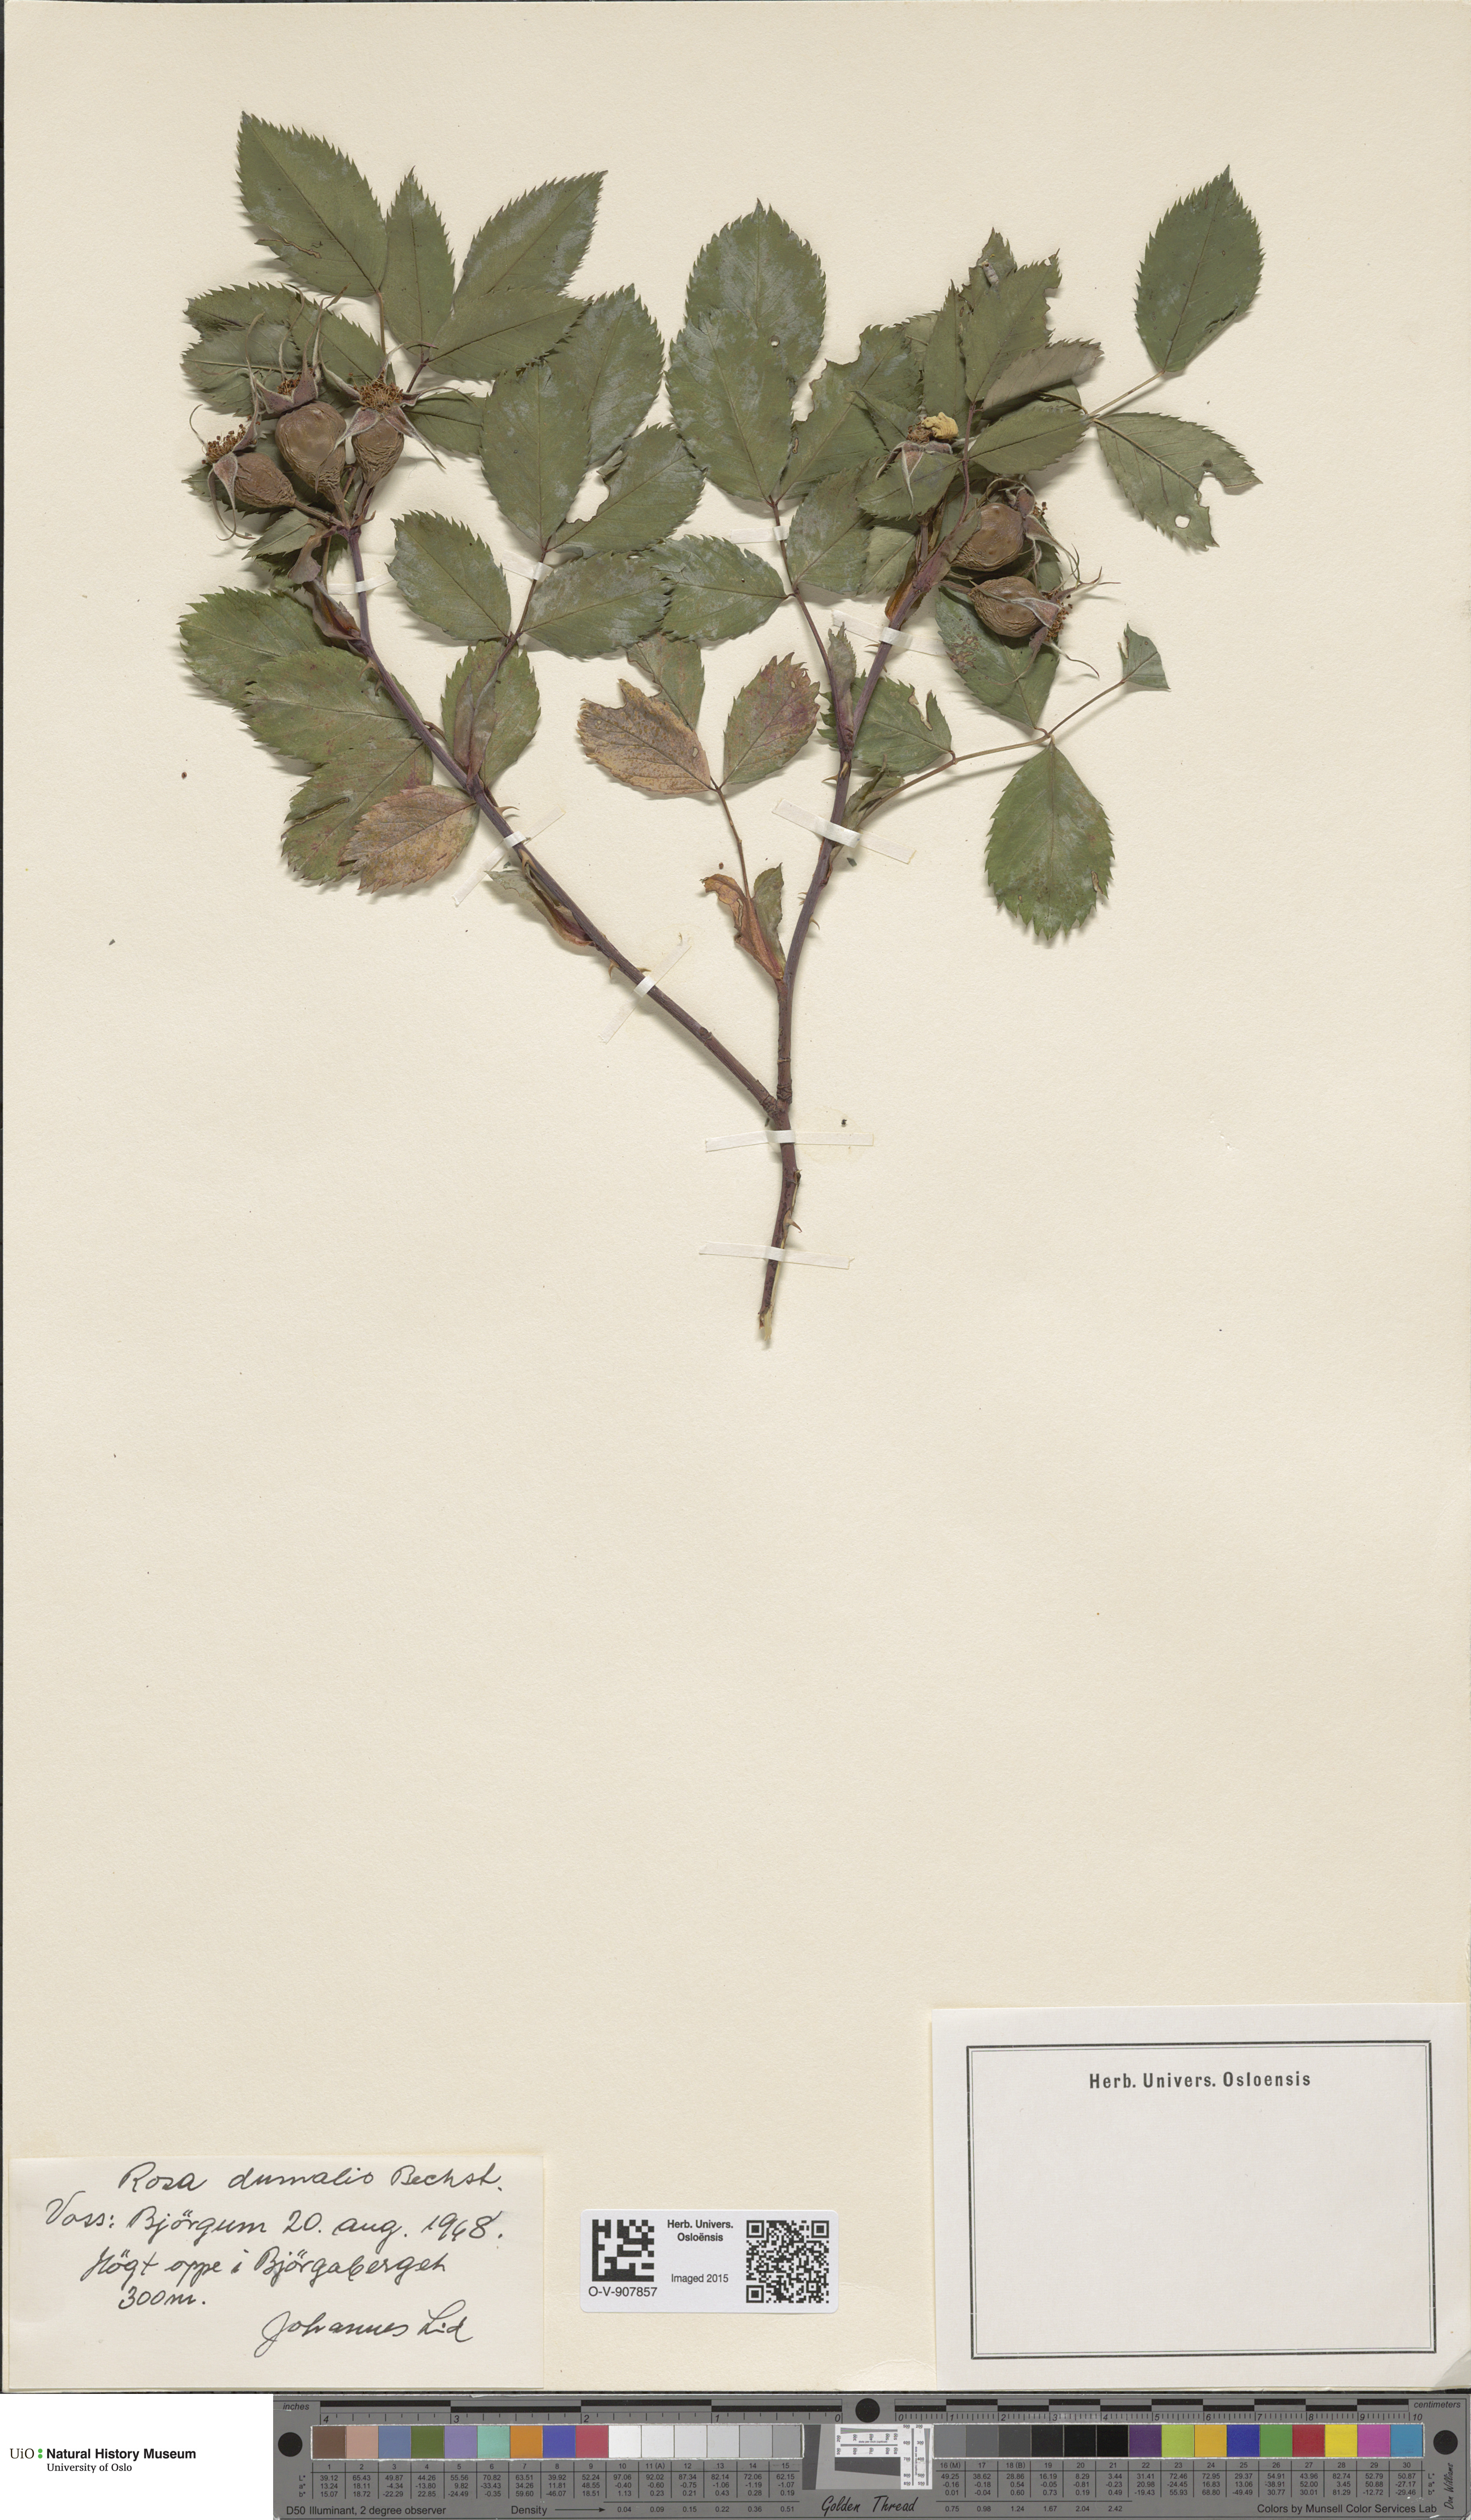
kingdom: Plantae
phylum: Tracheophyta
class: Magnoliopsida
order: Rosales
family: Rosaceae
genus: Rosa
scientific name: Rosa dumalis
